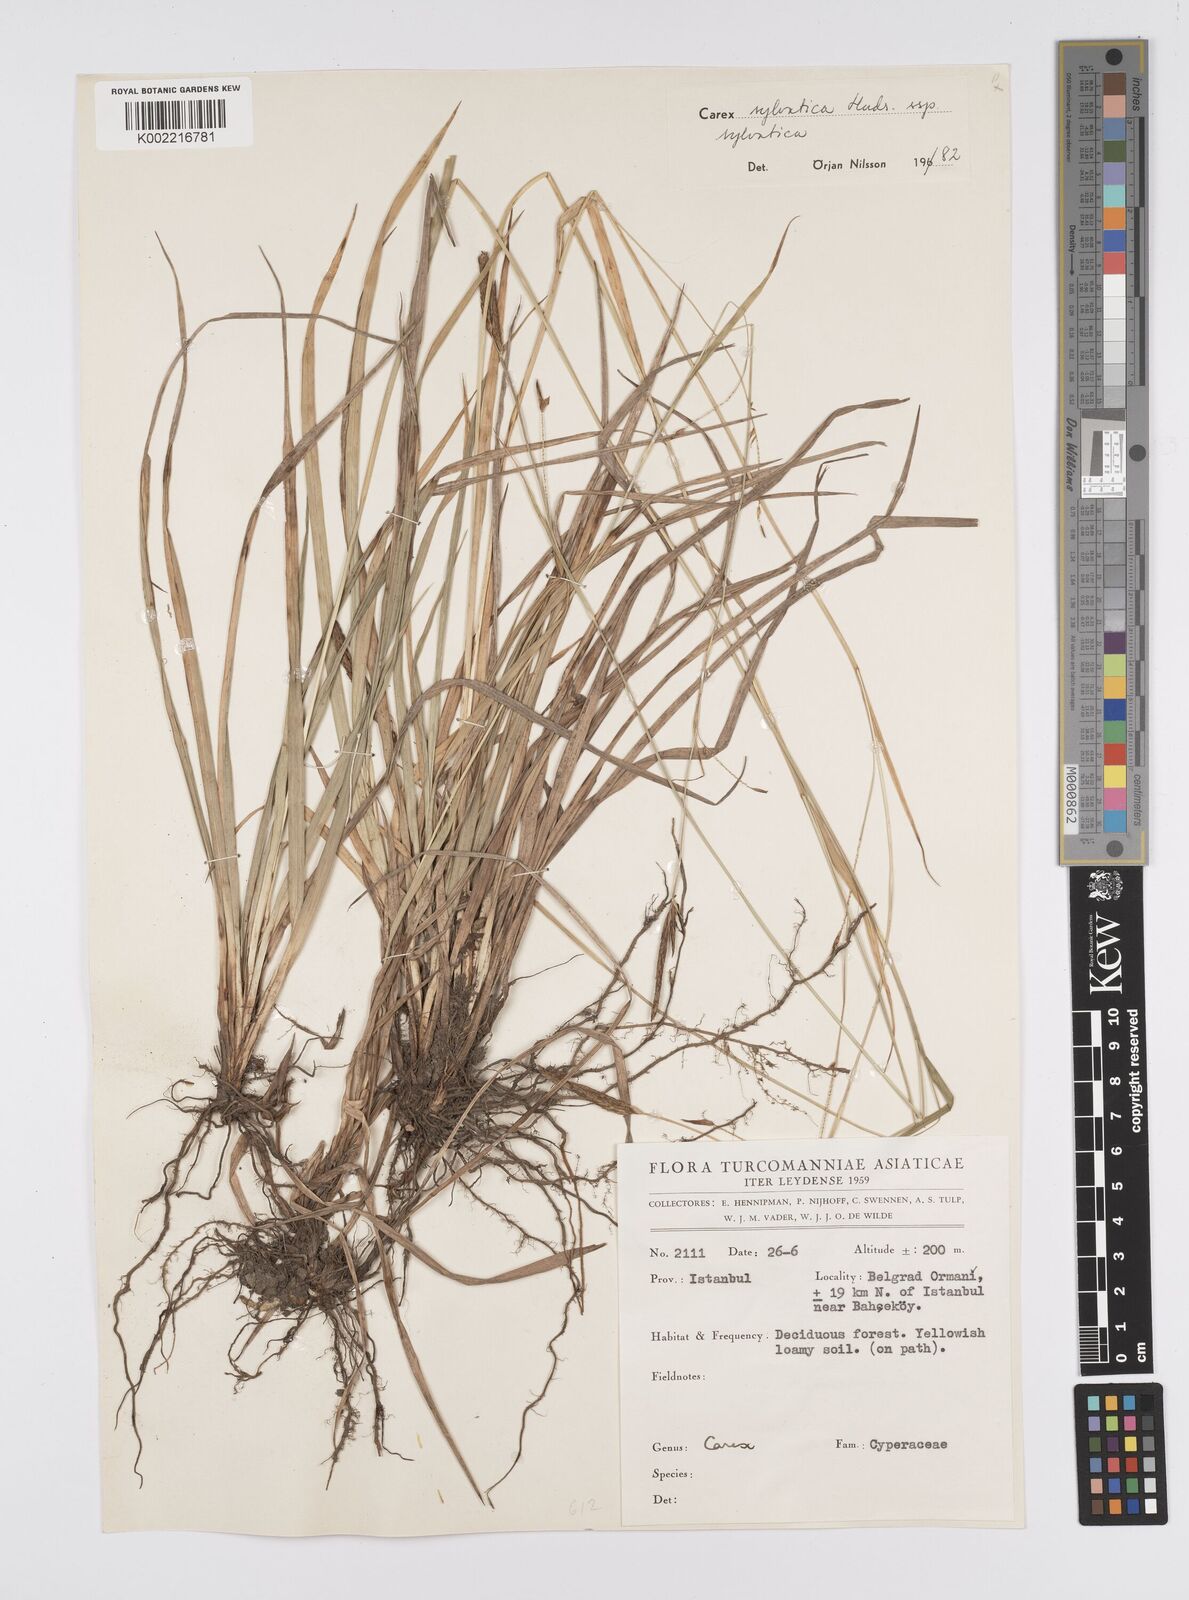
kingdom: Plantae
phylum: Tracheophyta
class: Liliopsida
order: Poales
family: Cyperaceae
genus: Carex
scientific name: Carex sylvatica
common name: Wood-sedge
